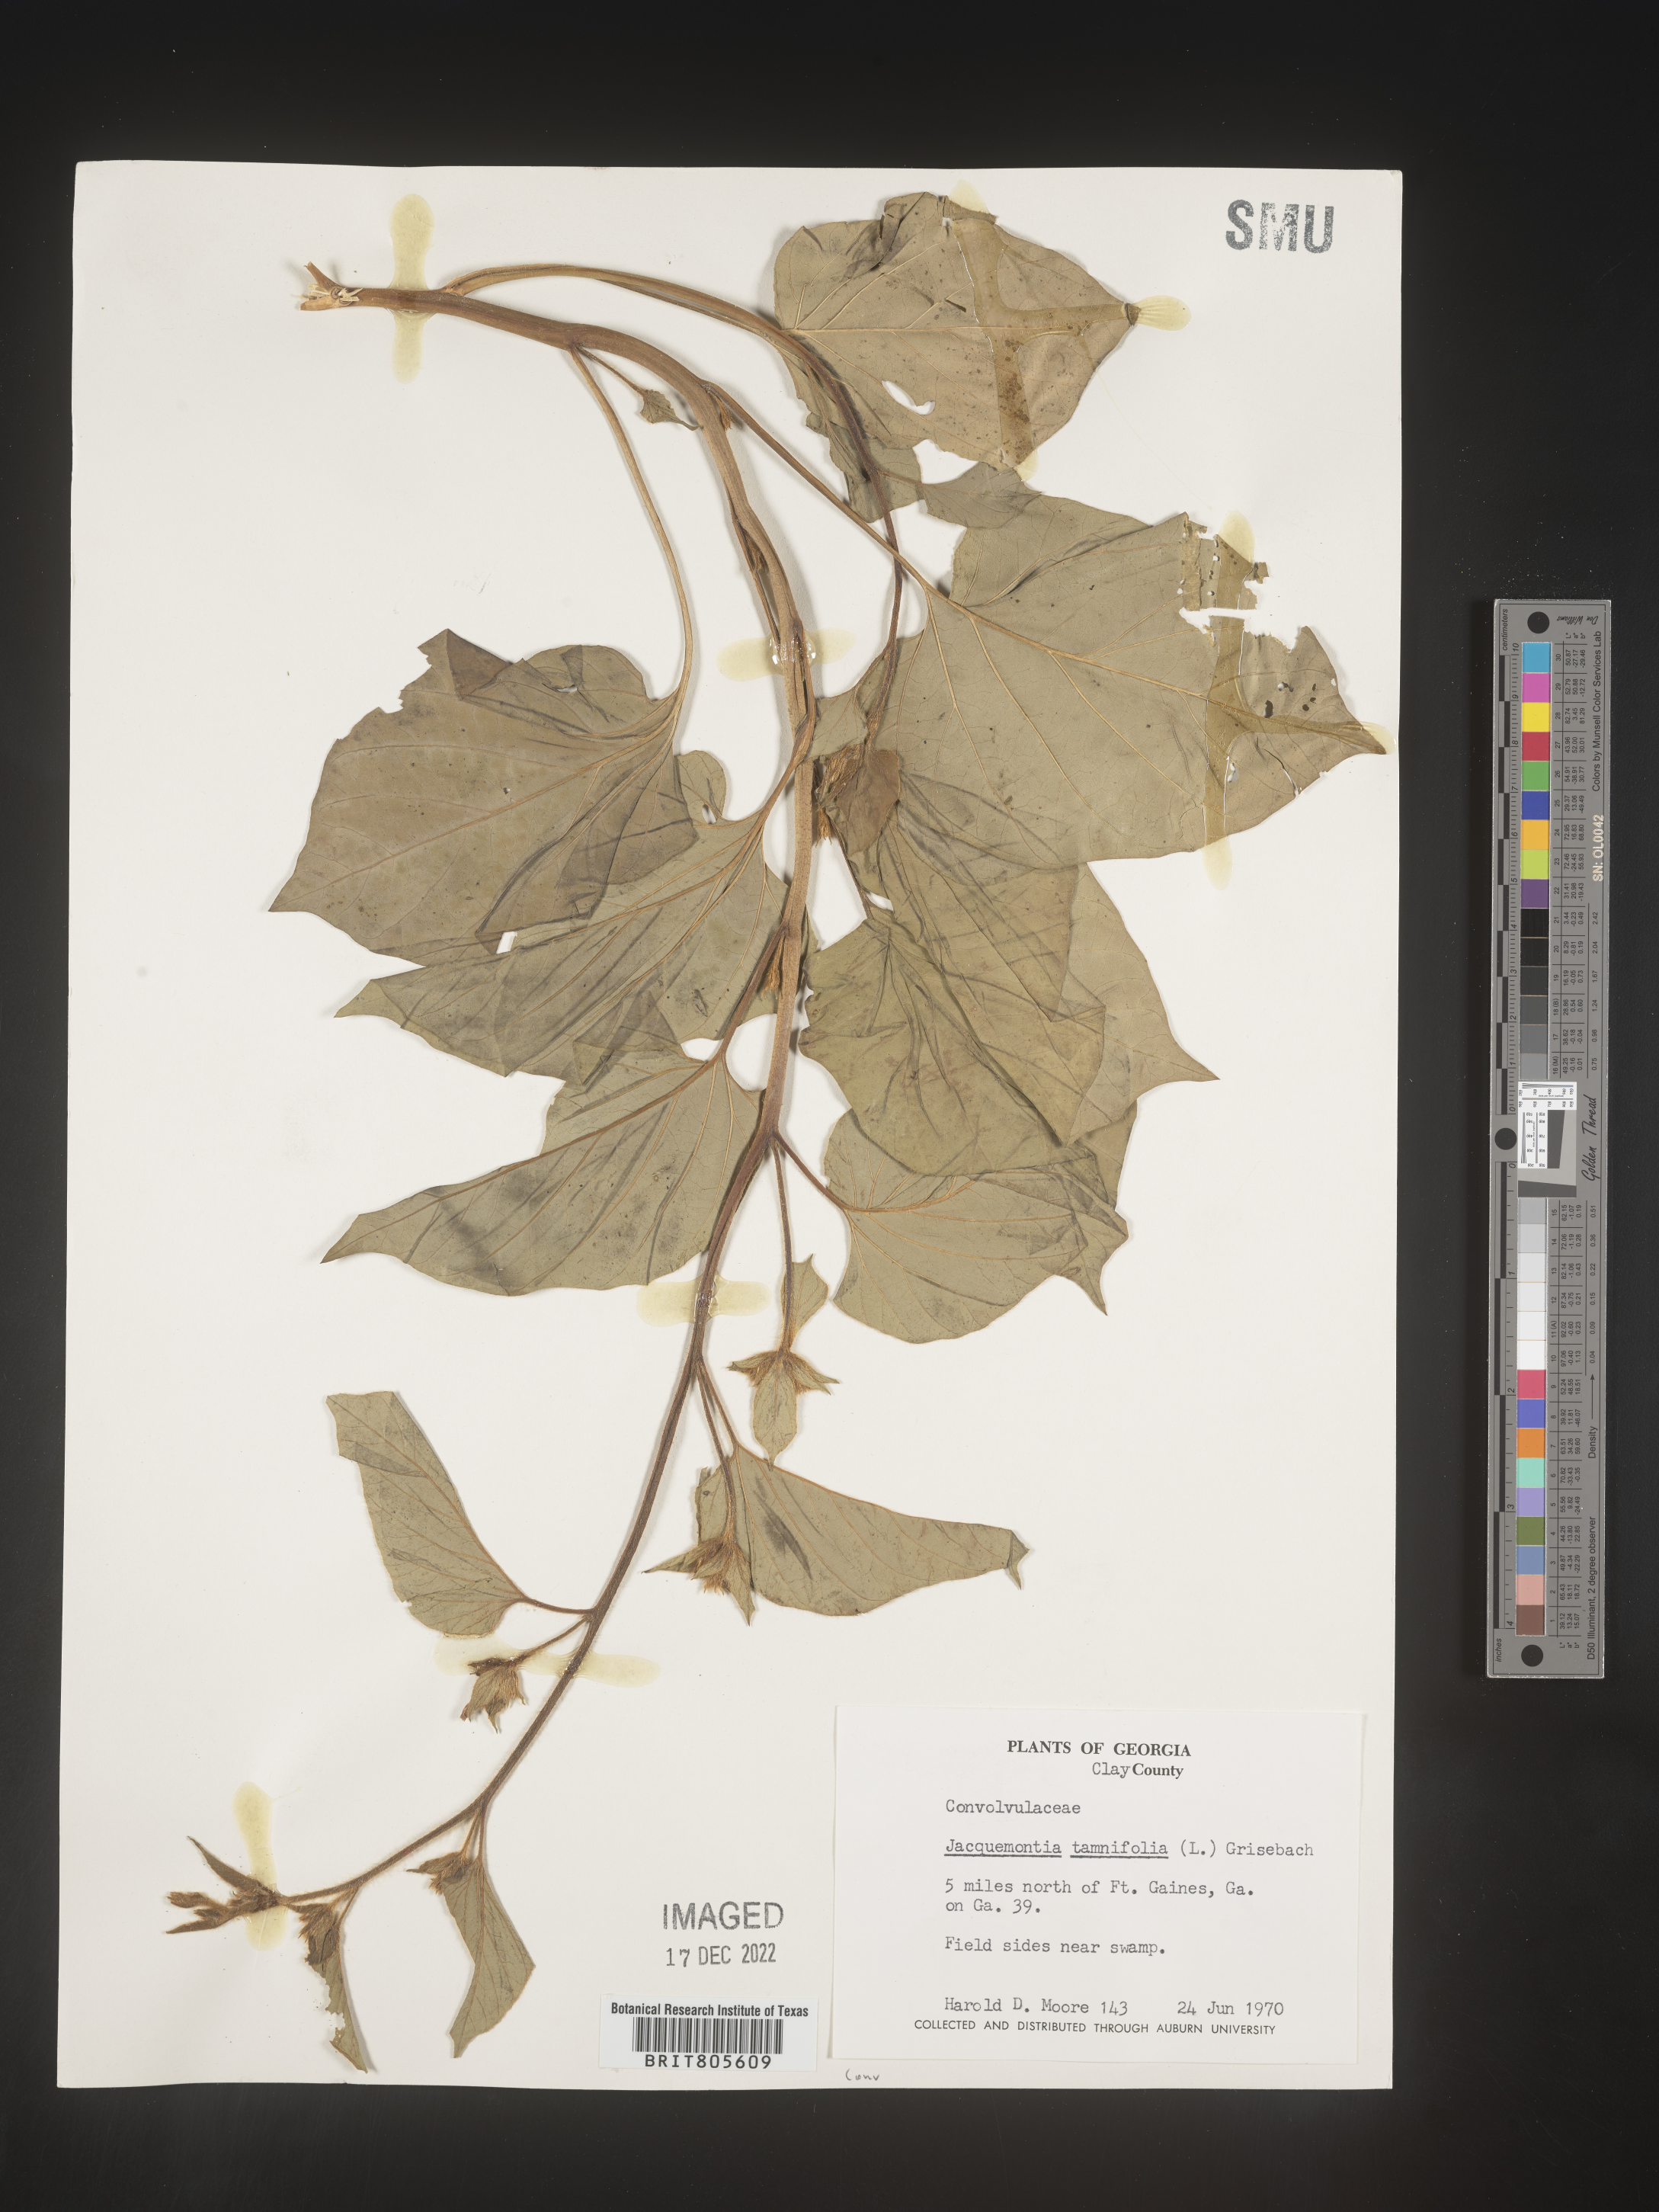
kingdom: Plantae
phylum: Tracheophyta
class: Magnoliopsida
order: Solanales
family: Convolvulaceae
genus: Jacquemontia
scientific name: Jacquemontia tamnifolia
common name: Hairy clustervine
